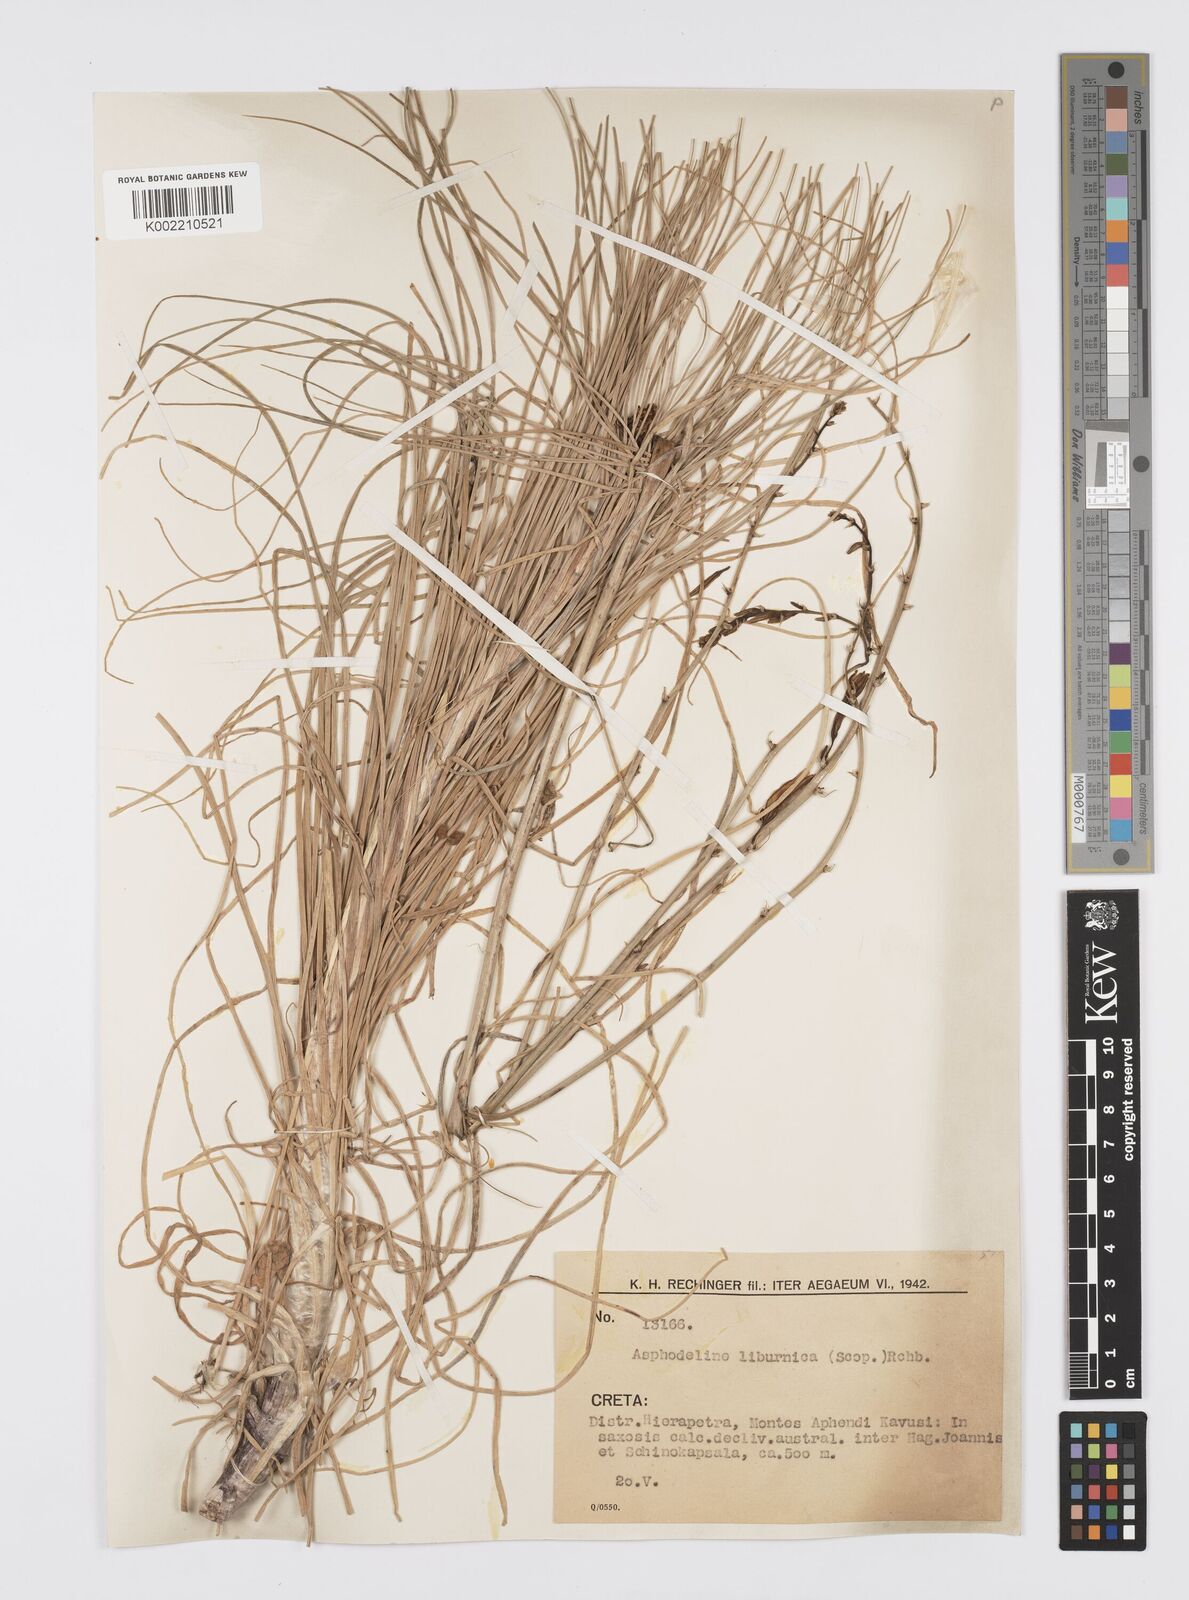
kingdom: Plantae
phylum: Tracheophyta
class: Liliopsida
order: Asparagales
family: Asphodelaceae
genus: Asphodeline
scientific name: Asphodeline liburnica
